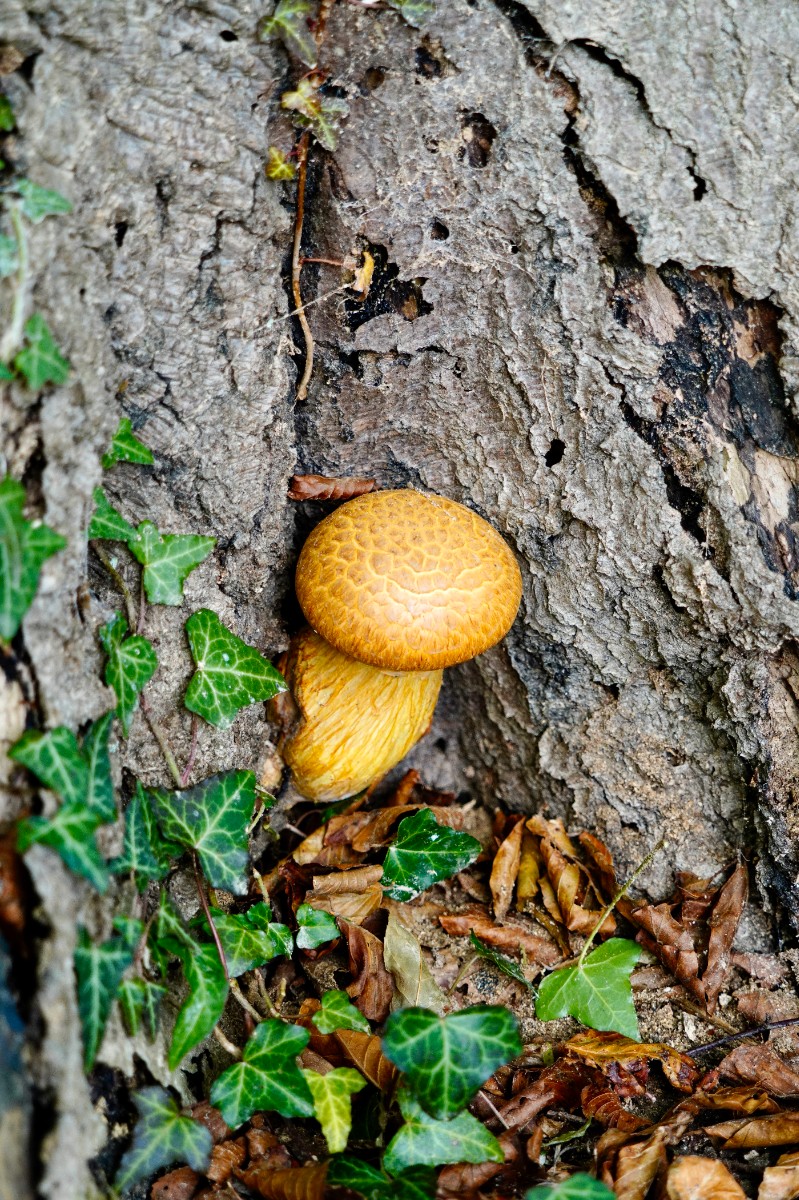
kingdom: Fungi
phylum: Basidiomycota
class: Agaricomycetes
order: Agaricales
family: Hymenogastraceae
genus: Gymnopilus
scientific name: Gymnopilus spectabilis
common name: fibret flammehat
